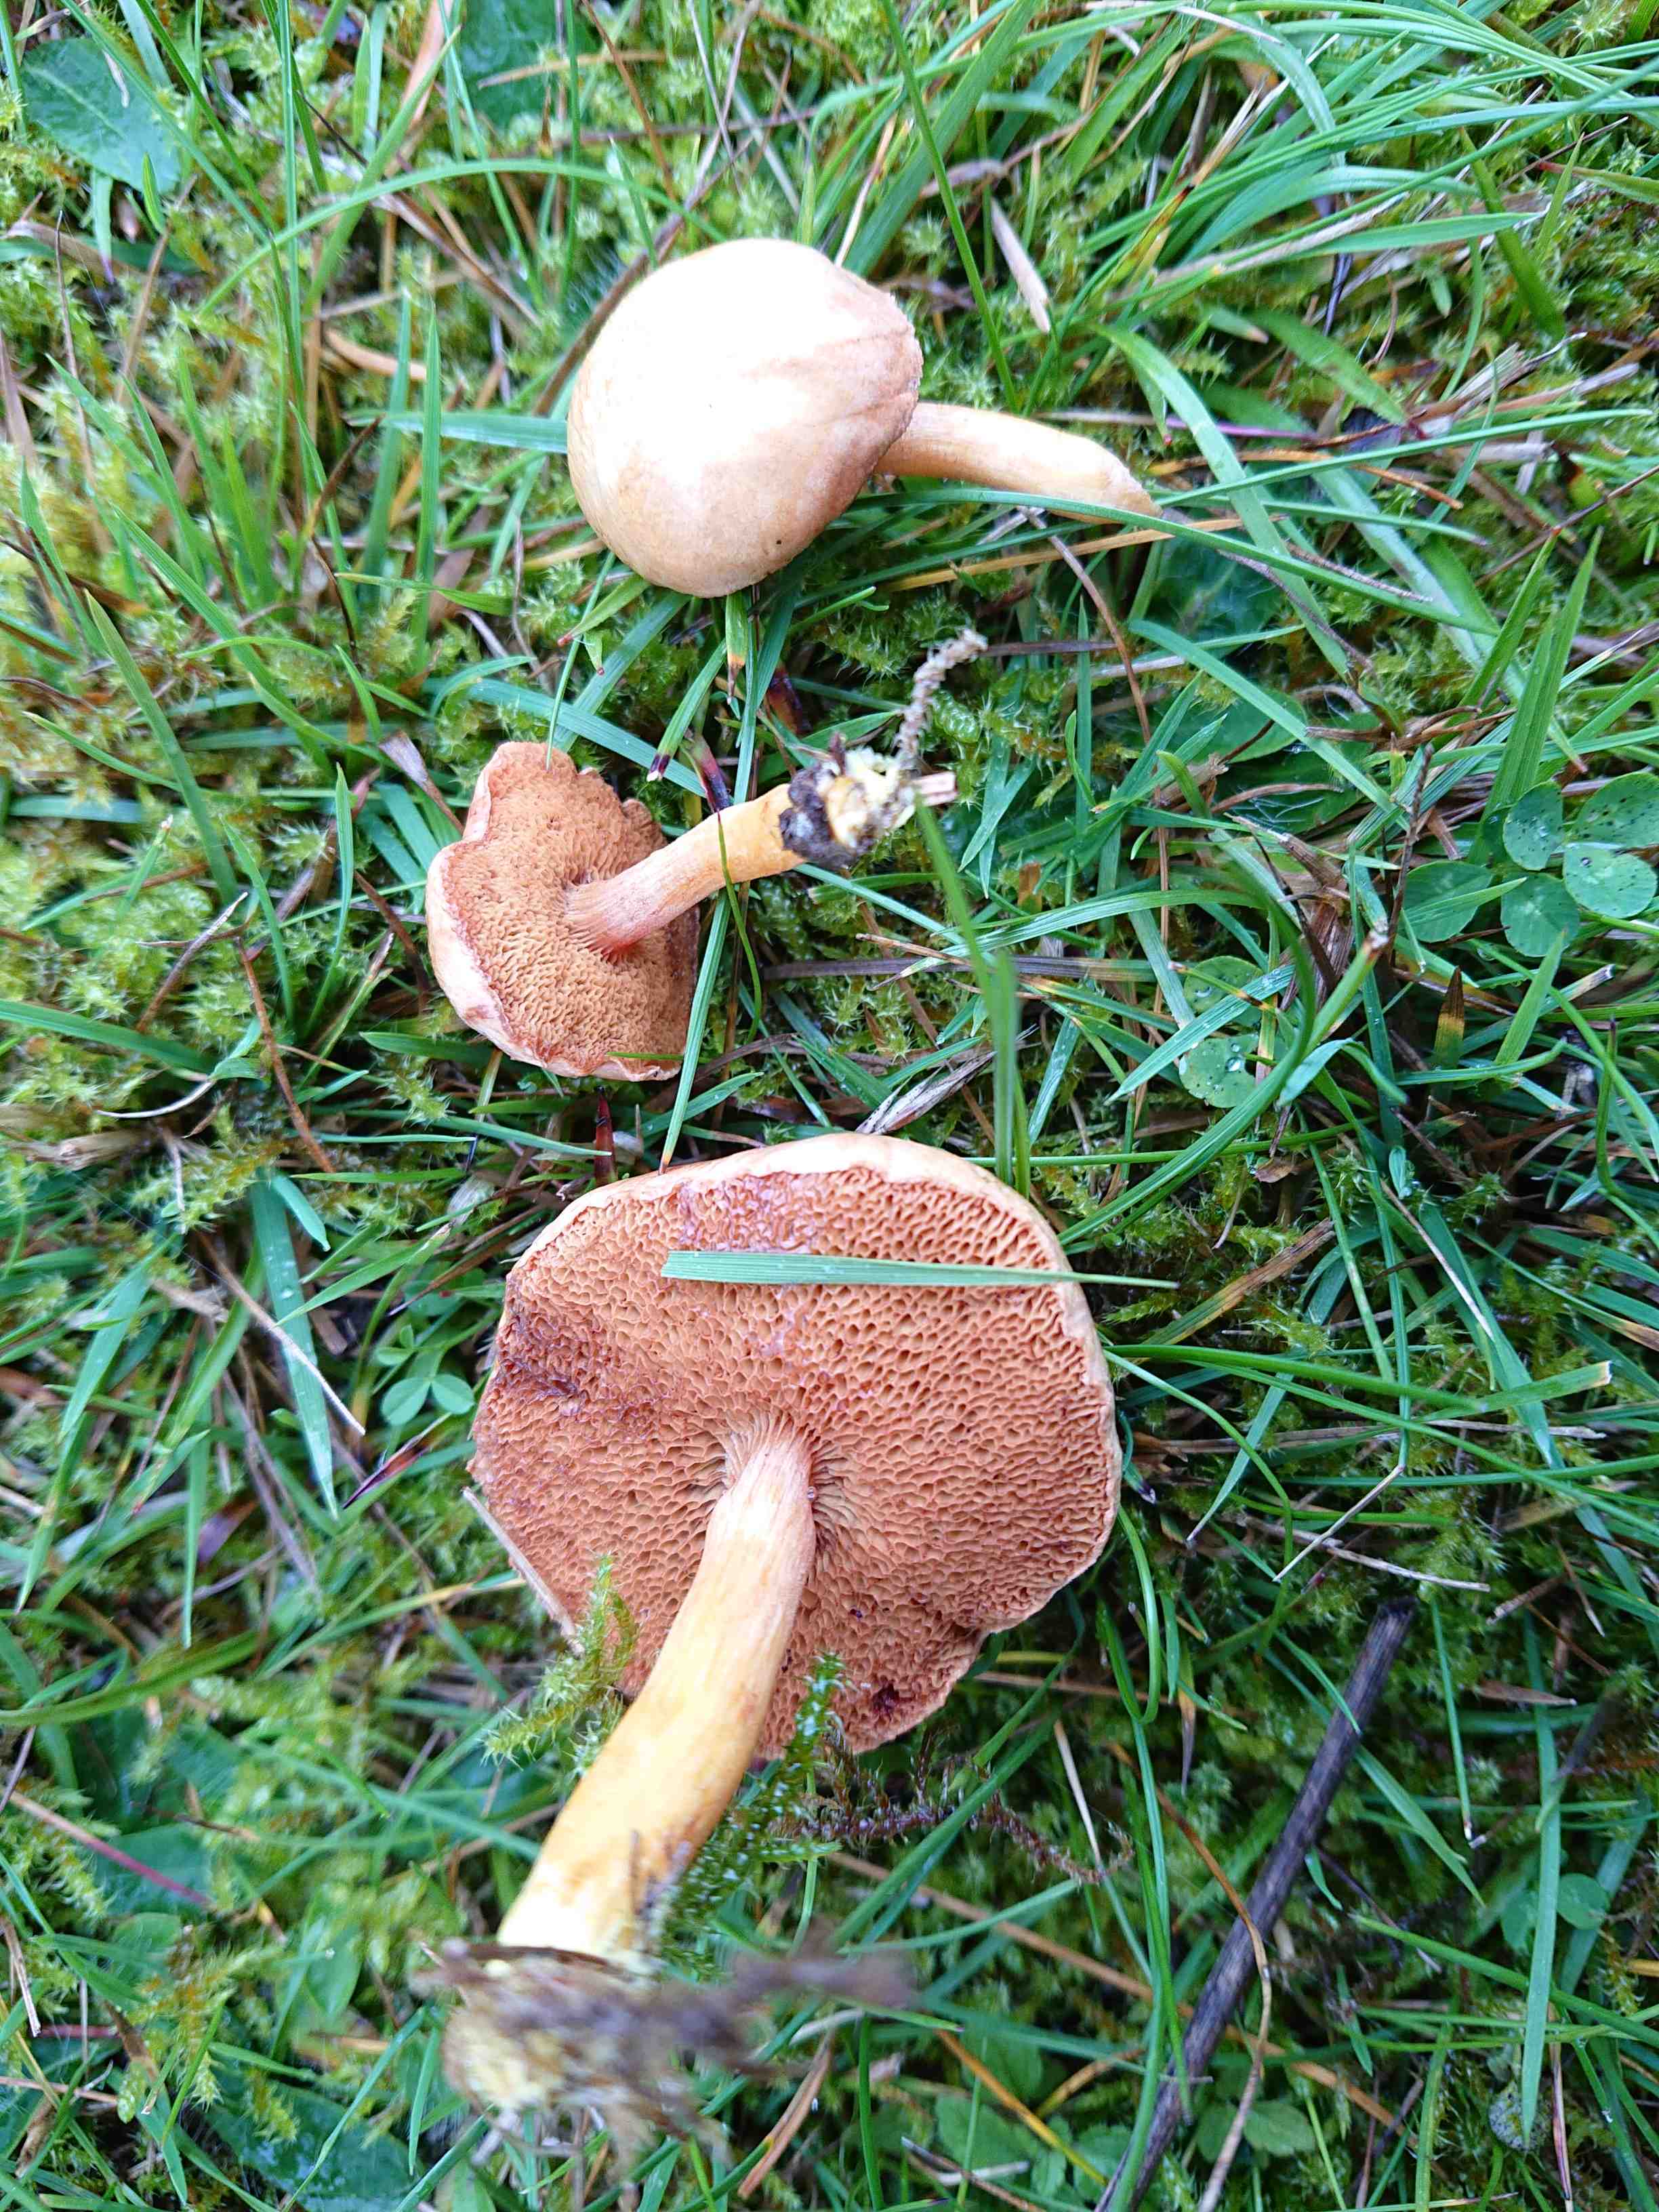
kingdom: Fungi
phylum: Basidiomycota
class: Agaricomycetes
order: Boletales
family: Boletaceae
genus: Chalciporus
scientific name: Chalciporus piperatus
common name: peberrørhat
